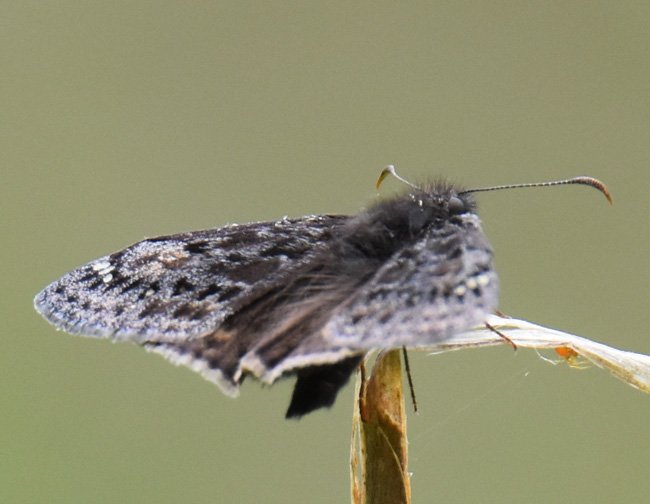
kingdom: Animalia
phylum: Arthropoda
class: Insecta
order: Lepidoptera
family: Hesperiidae
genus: Erynnis
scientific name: Erynnis
